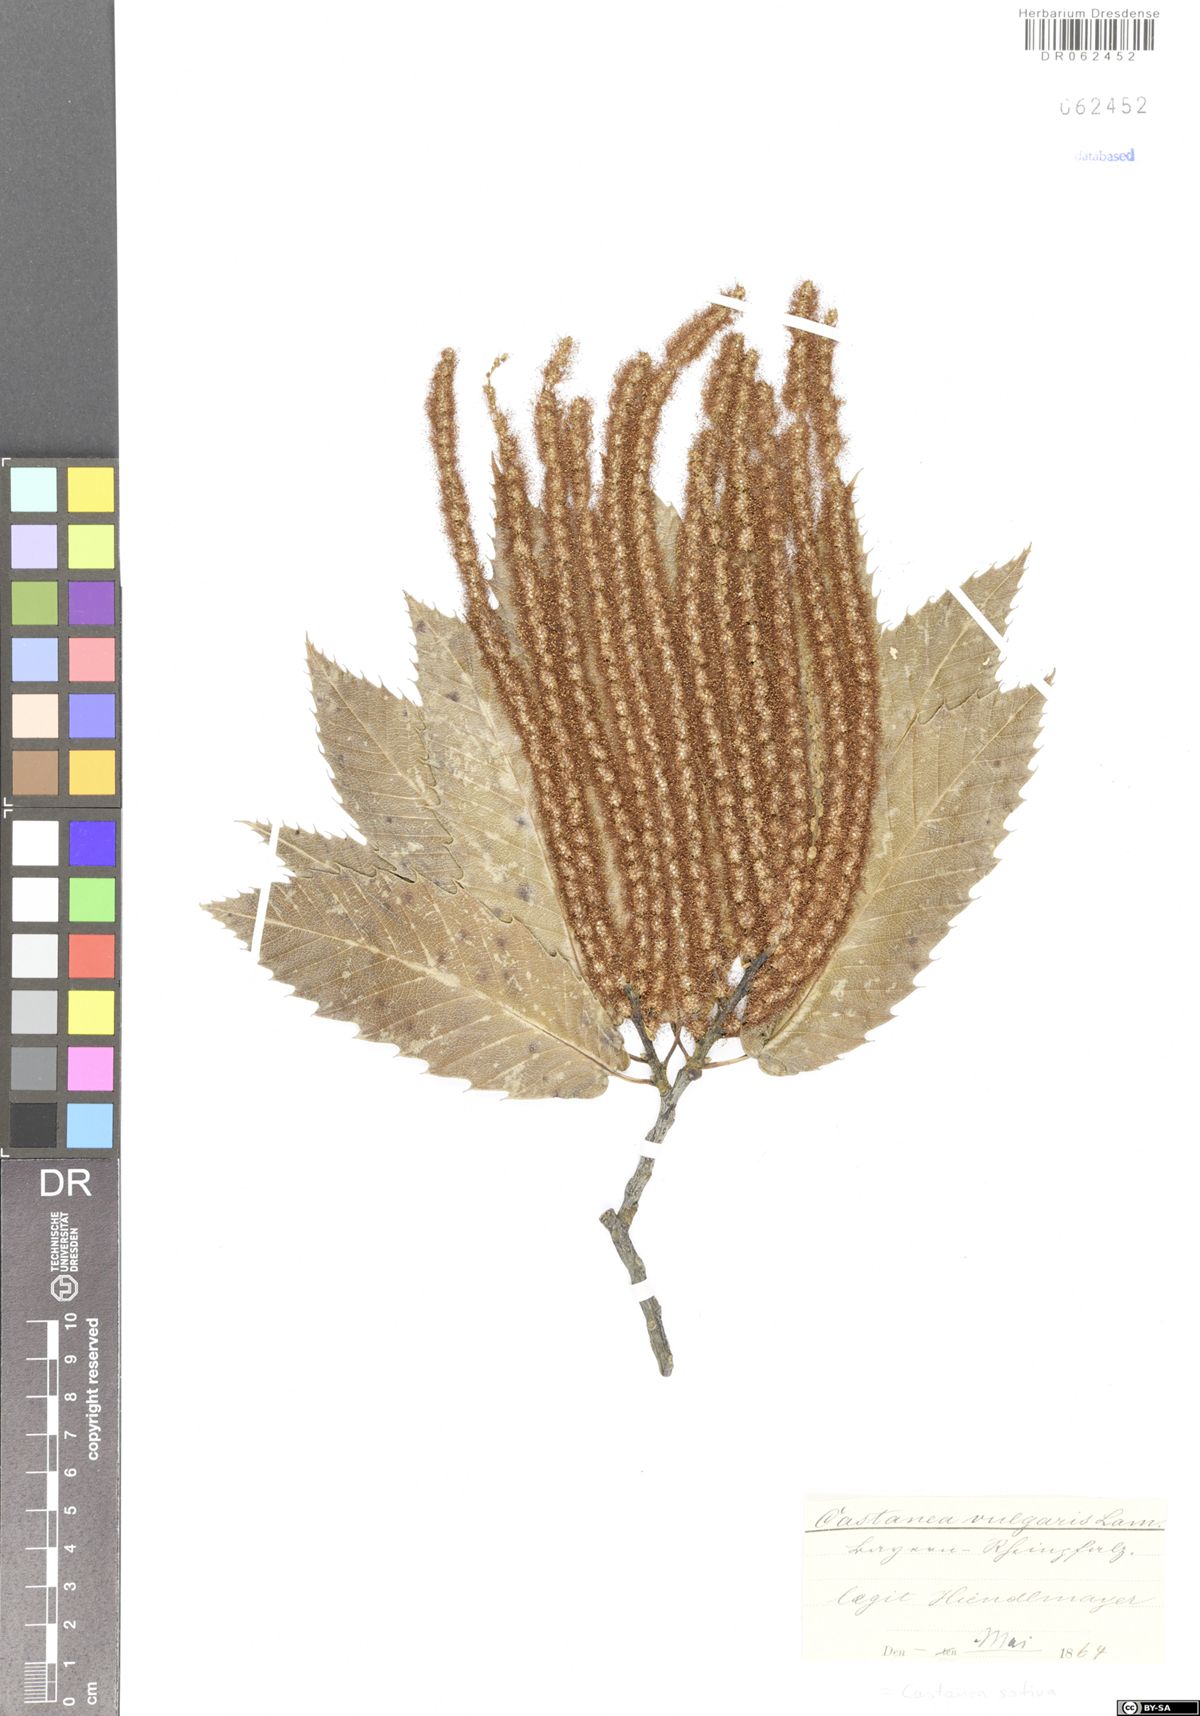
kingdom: Plantae
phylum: Tracheophyta
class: Magnoliopsida
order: Fagales
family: Fagaceae
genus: Castanea
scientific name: Castanea sativa
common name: Sweet chestnut
